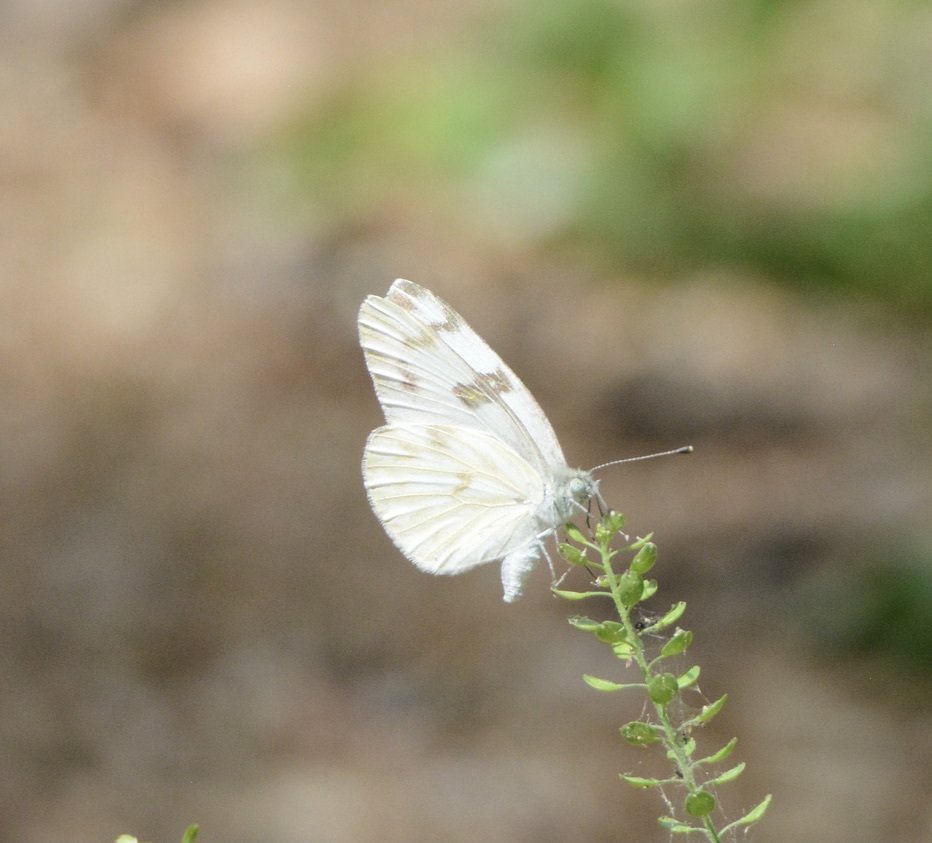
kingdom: Animalia
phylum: Arthropoda
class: Insecta
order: Lepidoptera
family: Pieridae
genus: Pontia
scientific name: Pontia protodice
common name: Checkered White
